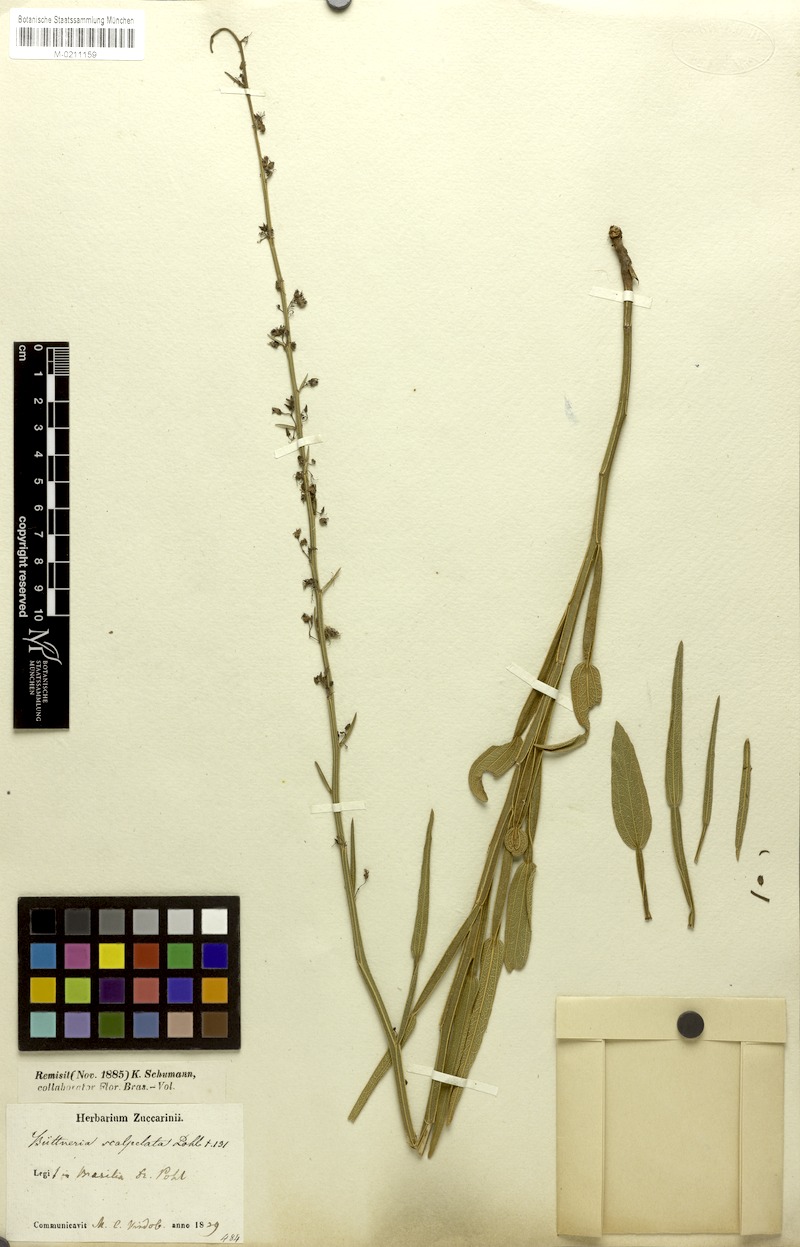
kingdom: Plantae
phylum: Tracheophyta
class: Magnoliopsida
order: Malvales
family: Malvaceae
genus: Byttneria
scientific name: Byttneria scalpellata
